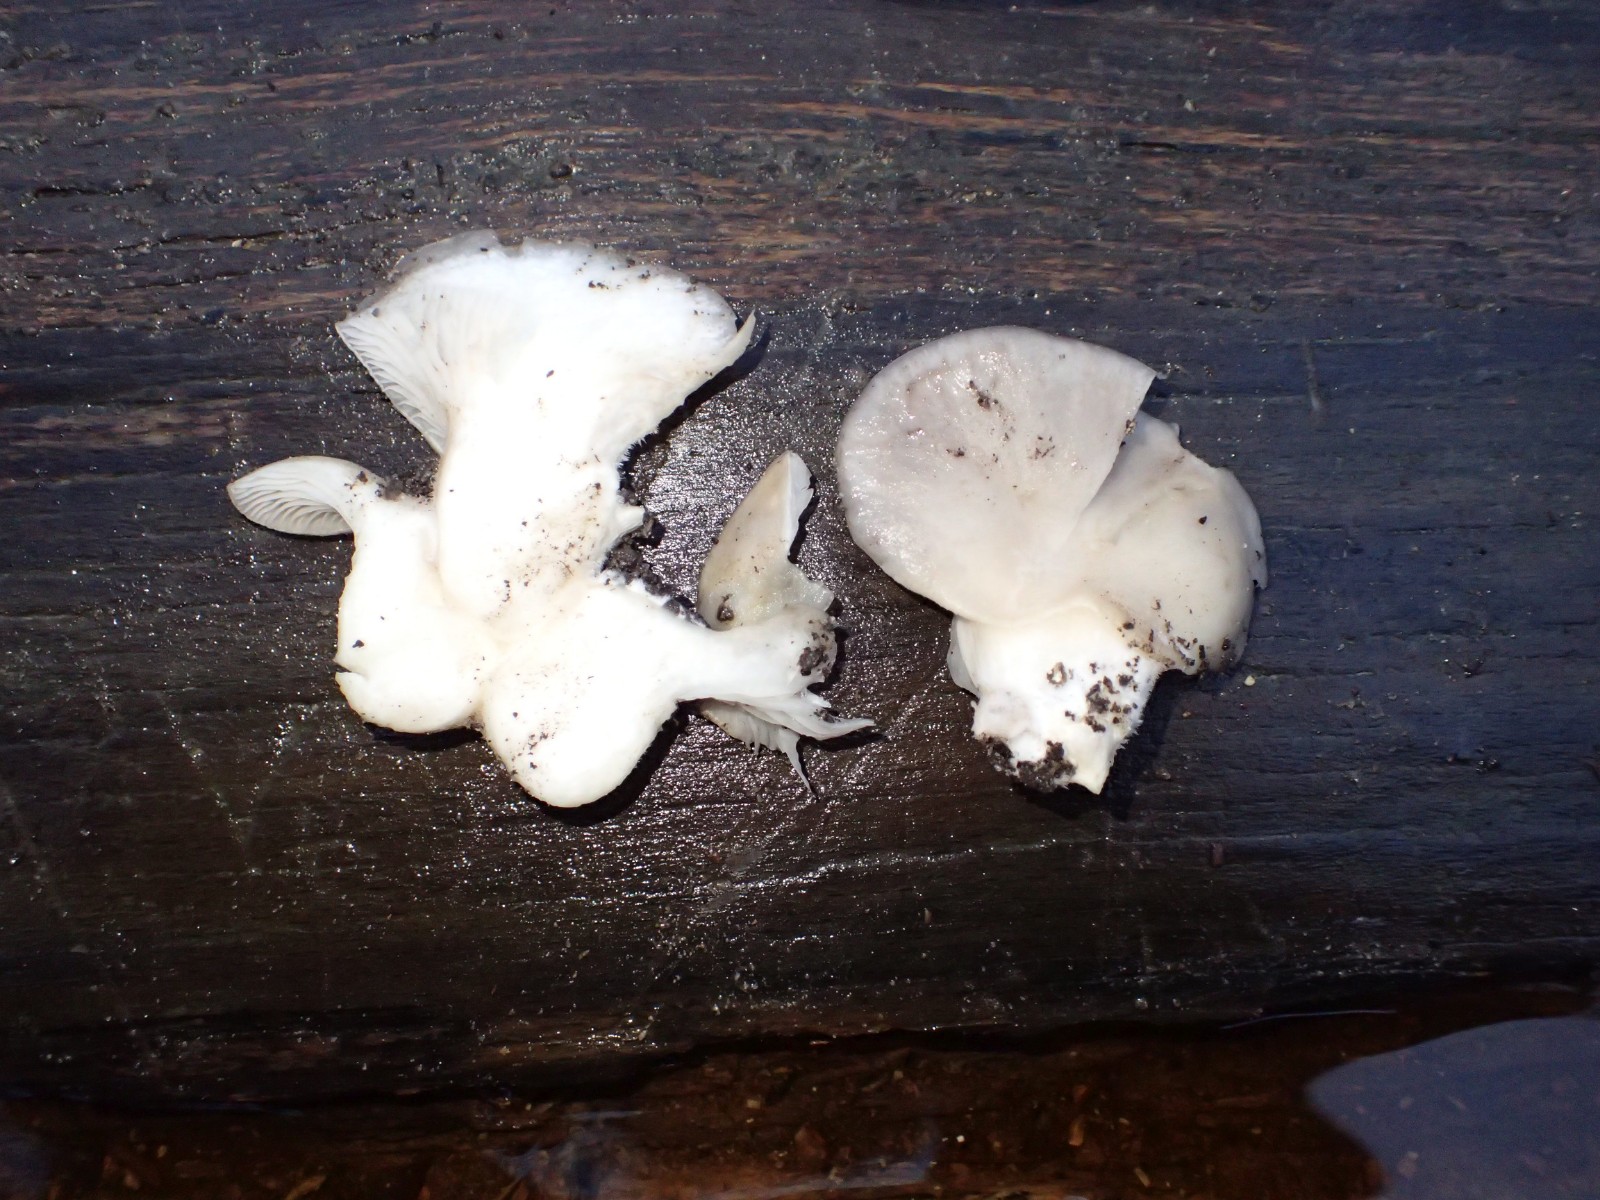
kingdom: Fungi
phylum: Basidiomycota
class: Agaricomycetes
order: Agaricales
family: Pleurotaceae
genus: Pleurotus
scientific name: Pleurotus ostreatus
